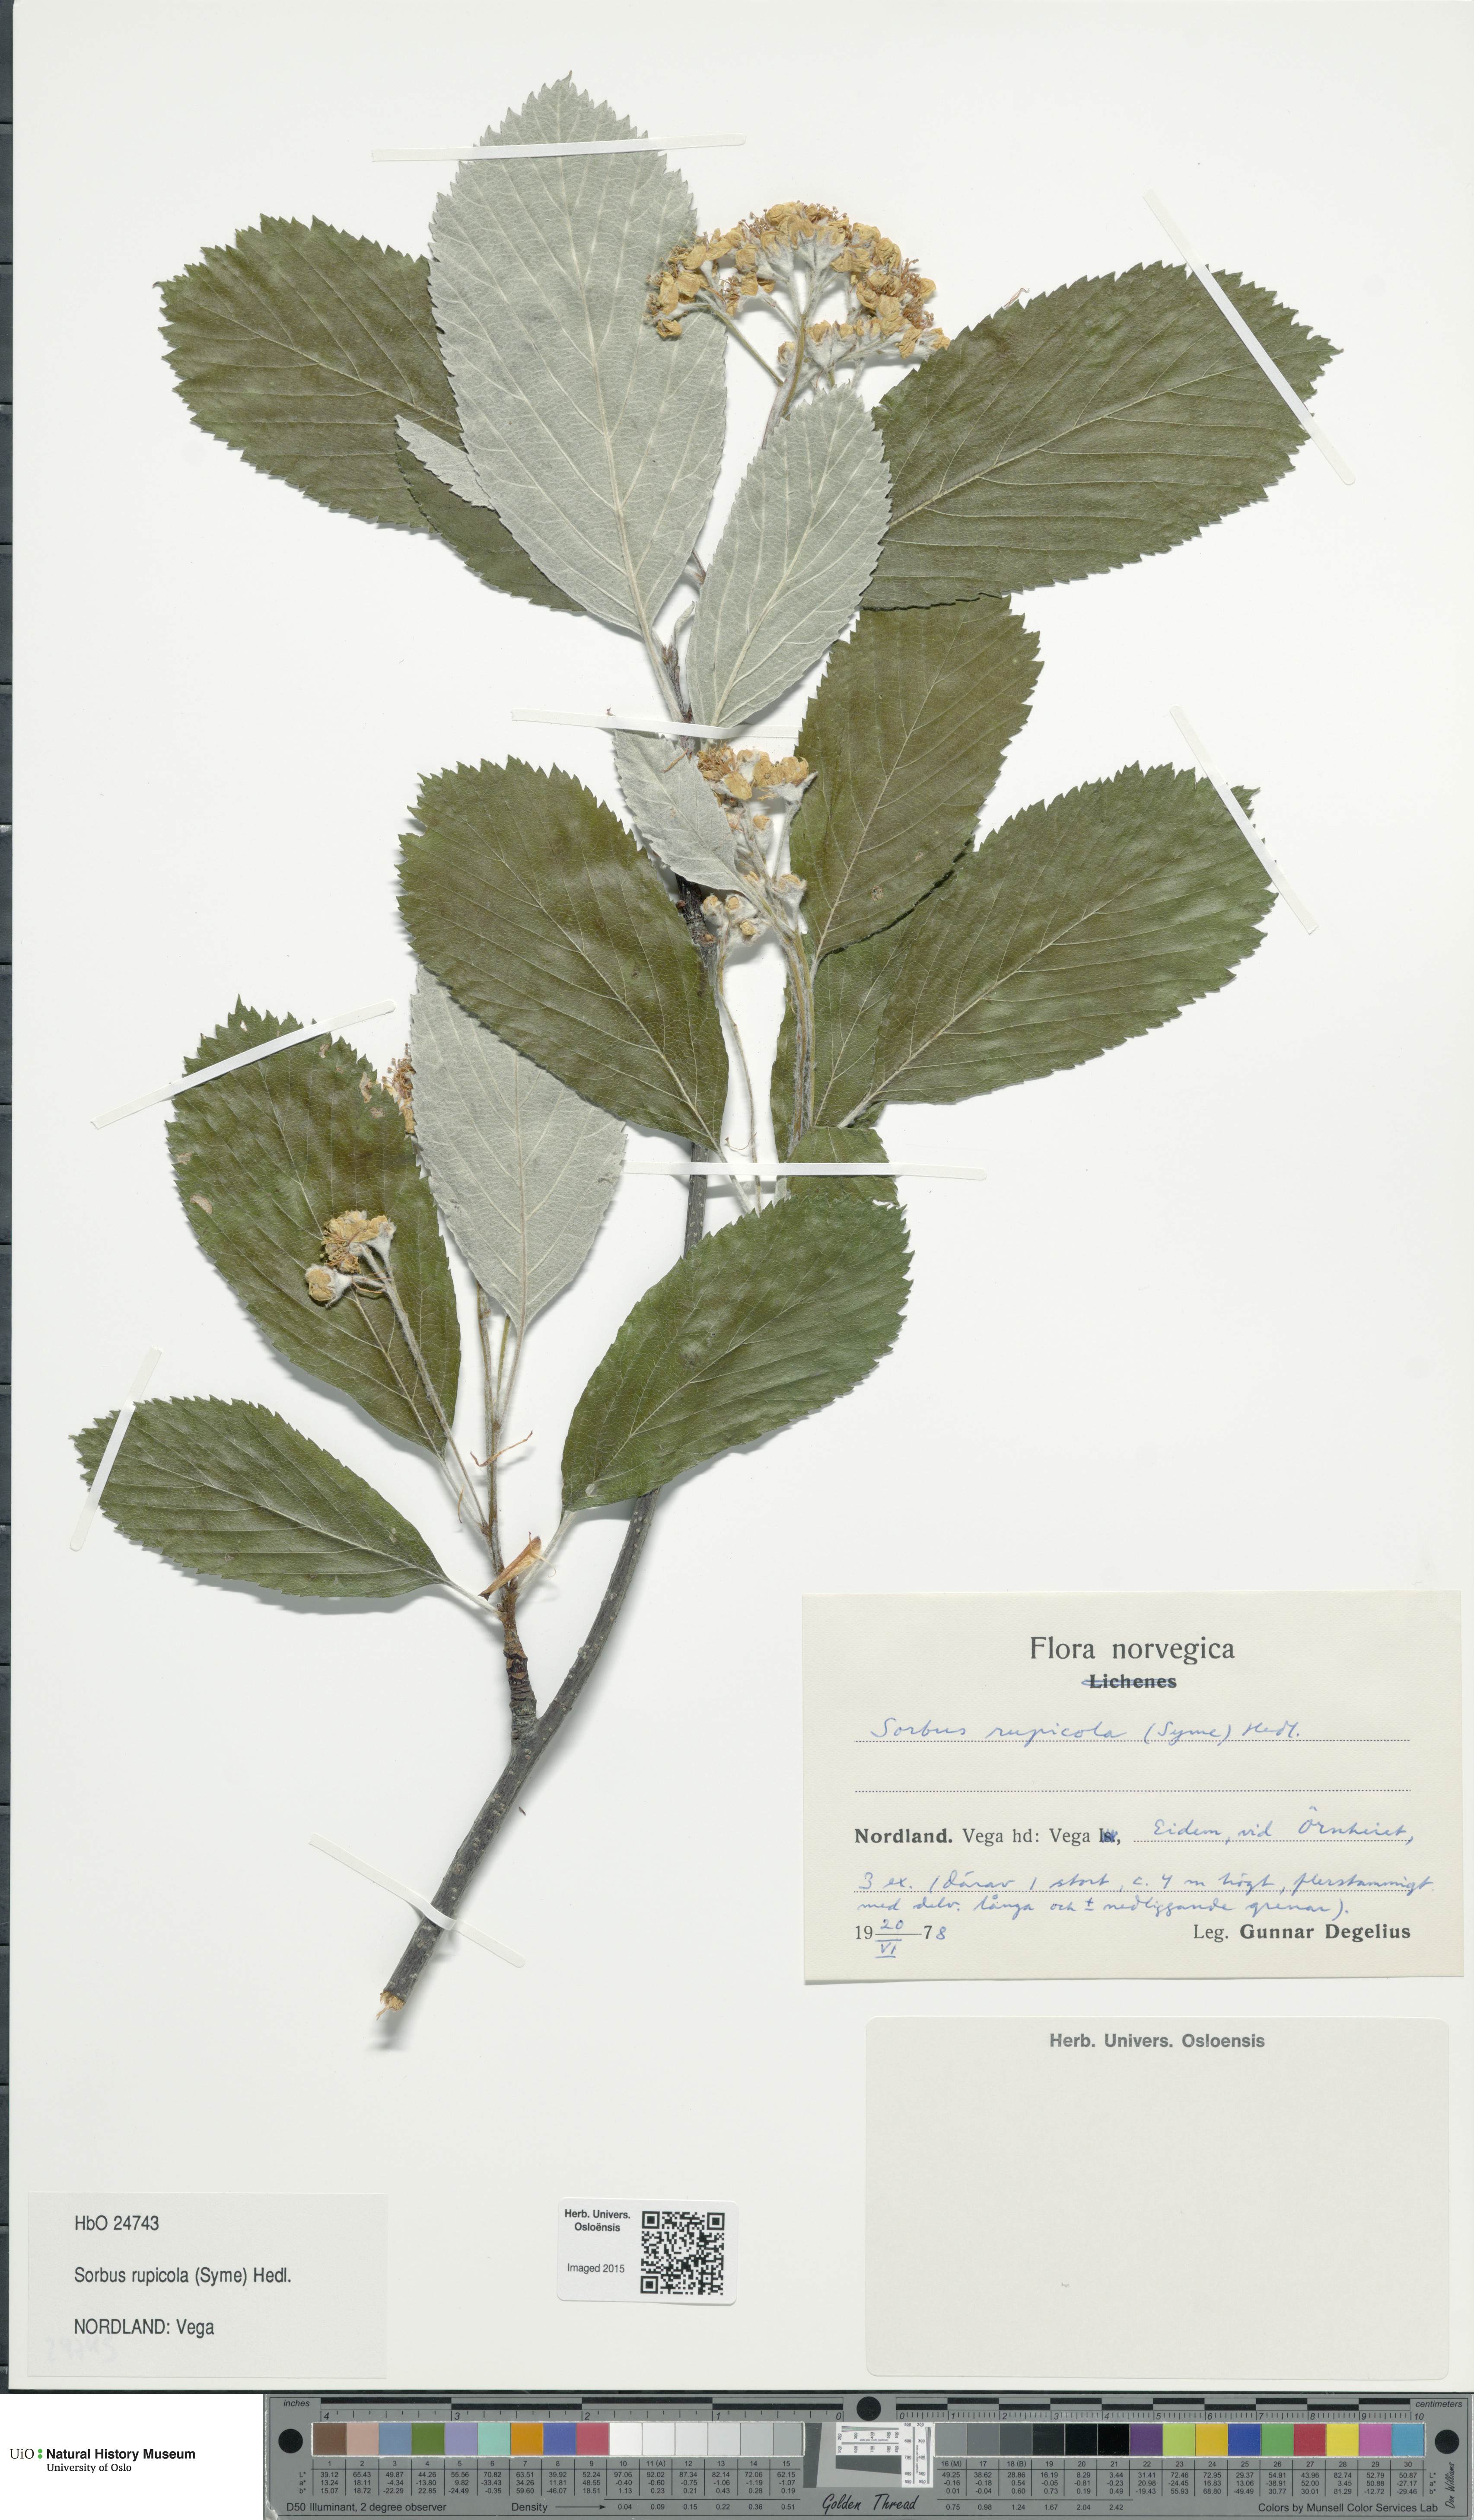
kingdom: Plantae
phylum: Tracheophyta
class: Magnoliopsida
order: Rosales
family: Rosaceae
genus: Aria
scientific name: Aria rupicola
